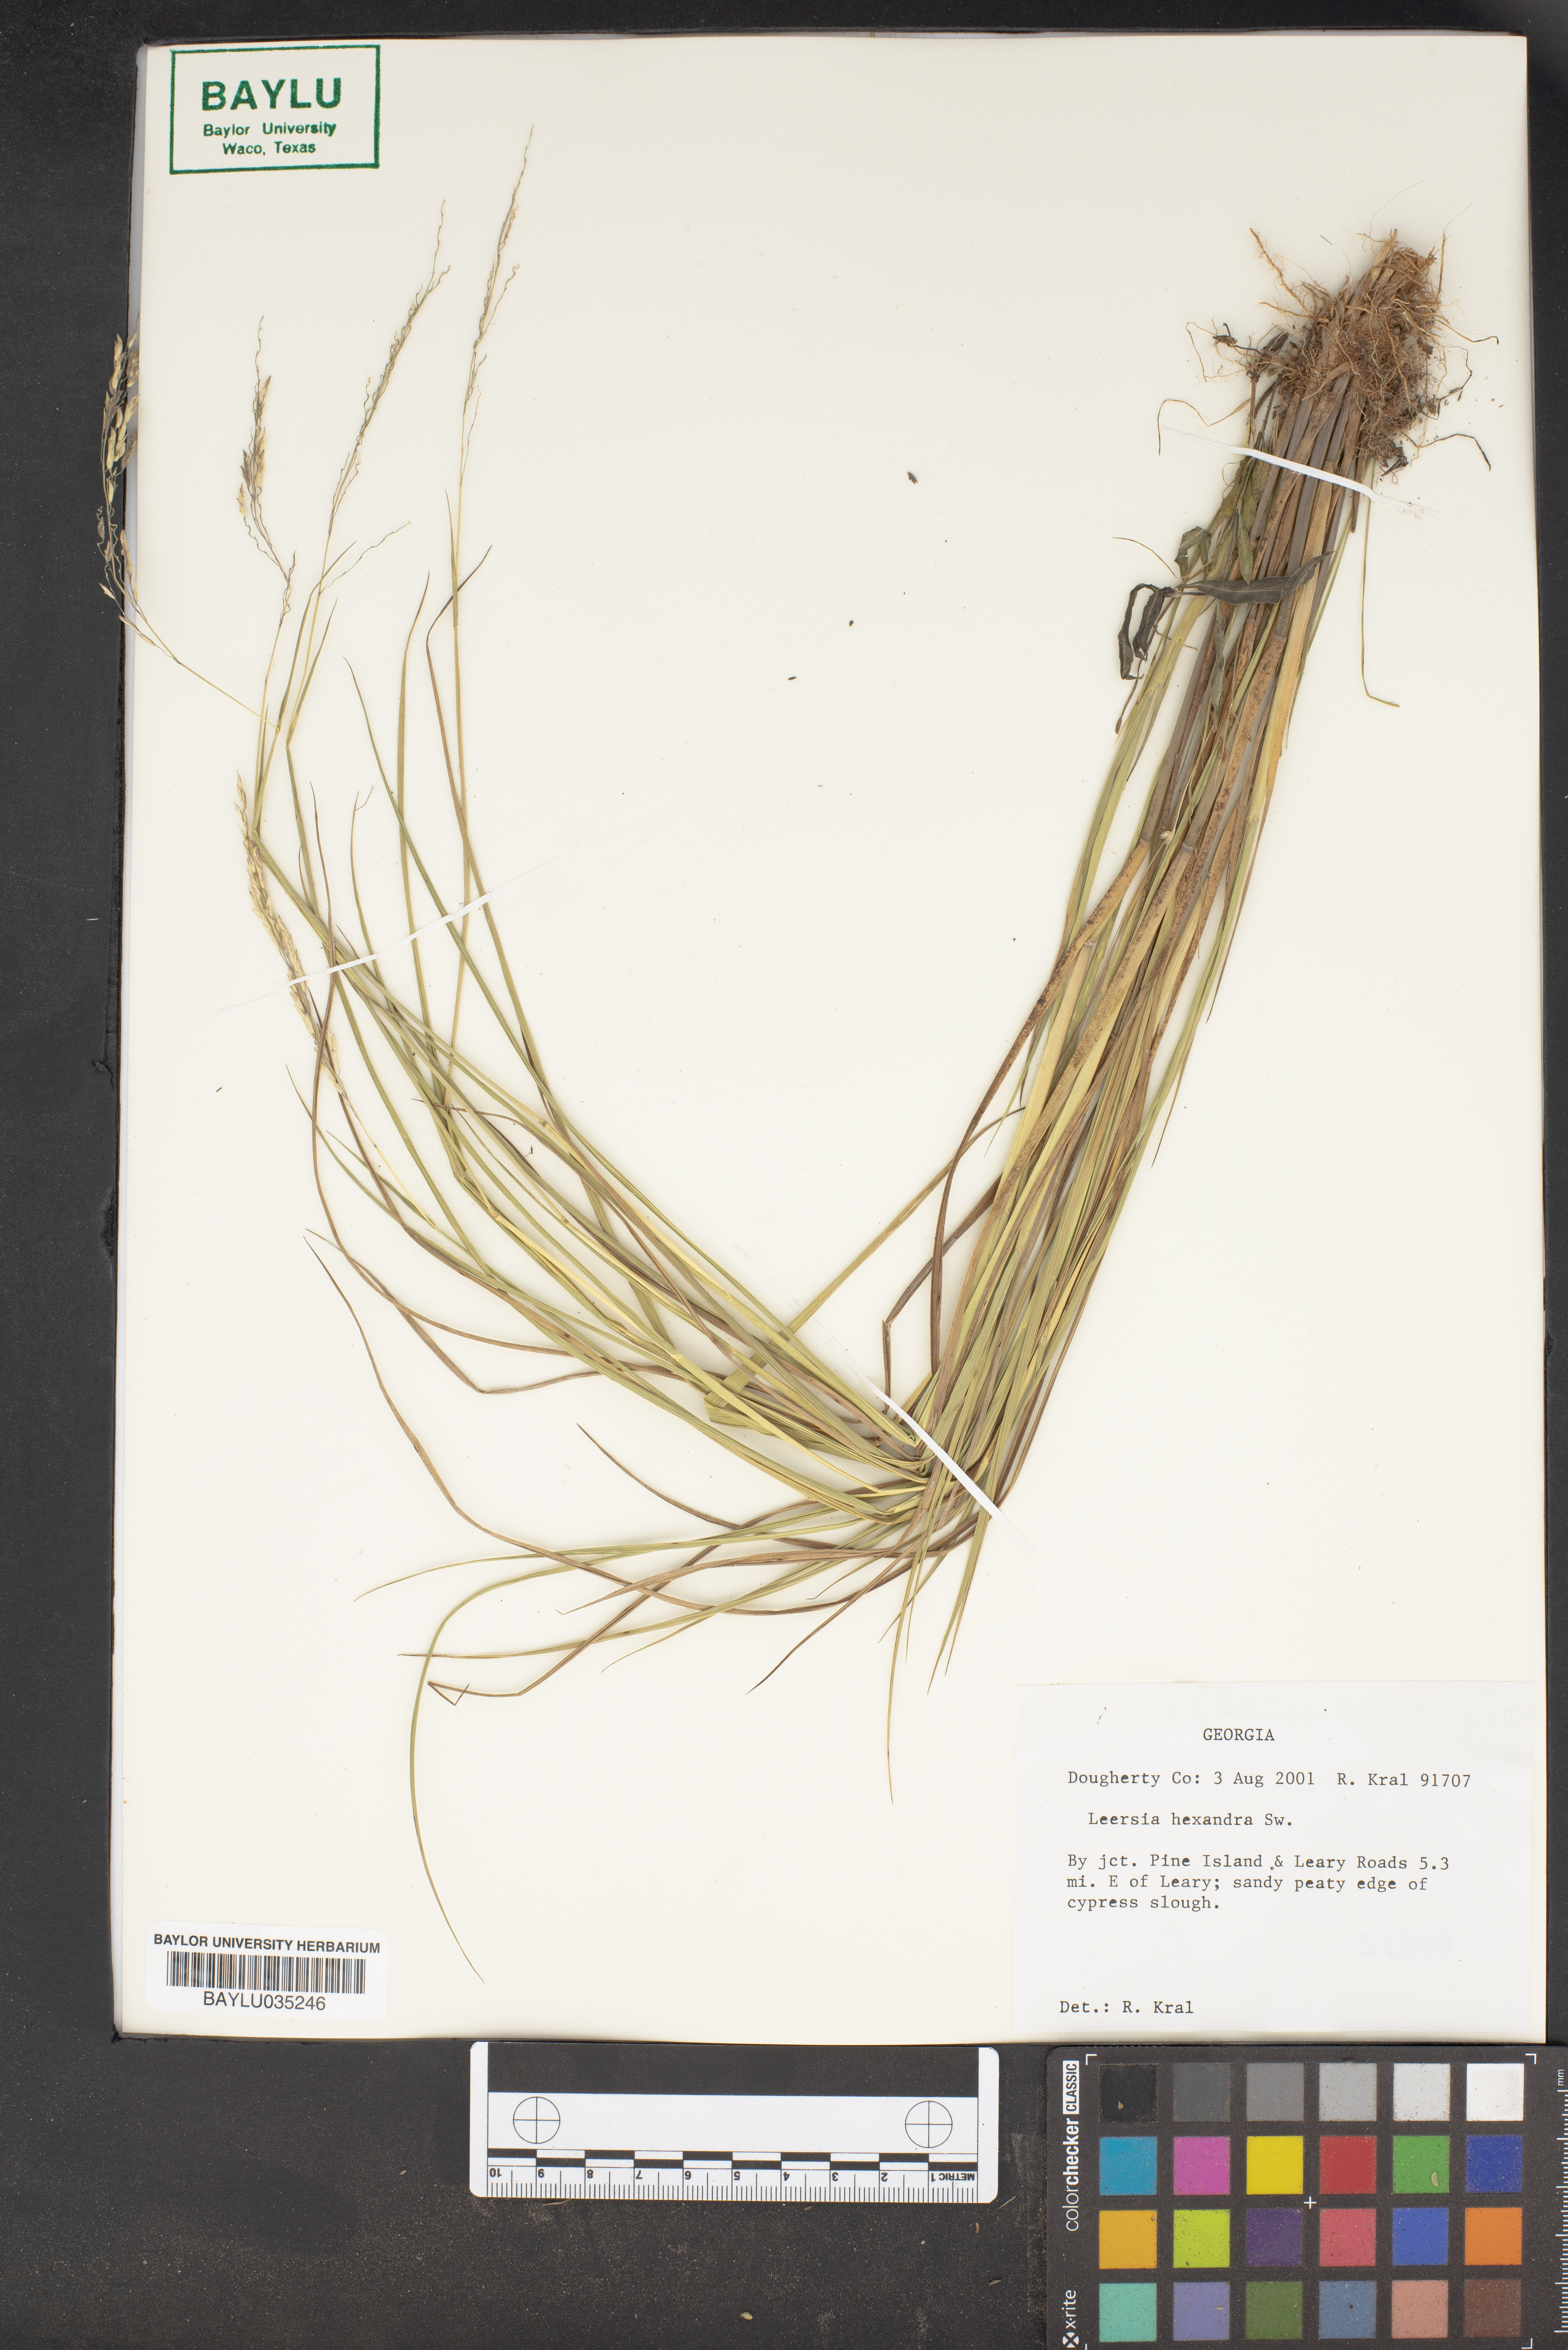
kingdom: Plantae
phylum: Tracheophyta
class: Liliopsida
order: Poales
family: Poaceae
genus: Leersia
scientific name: Leersia hexandra
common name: Southern cut grass
